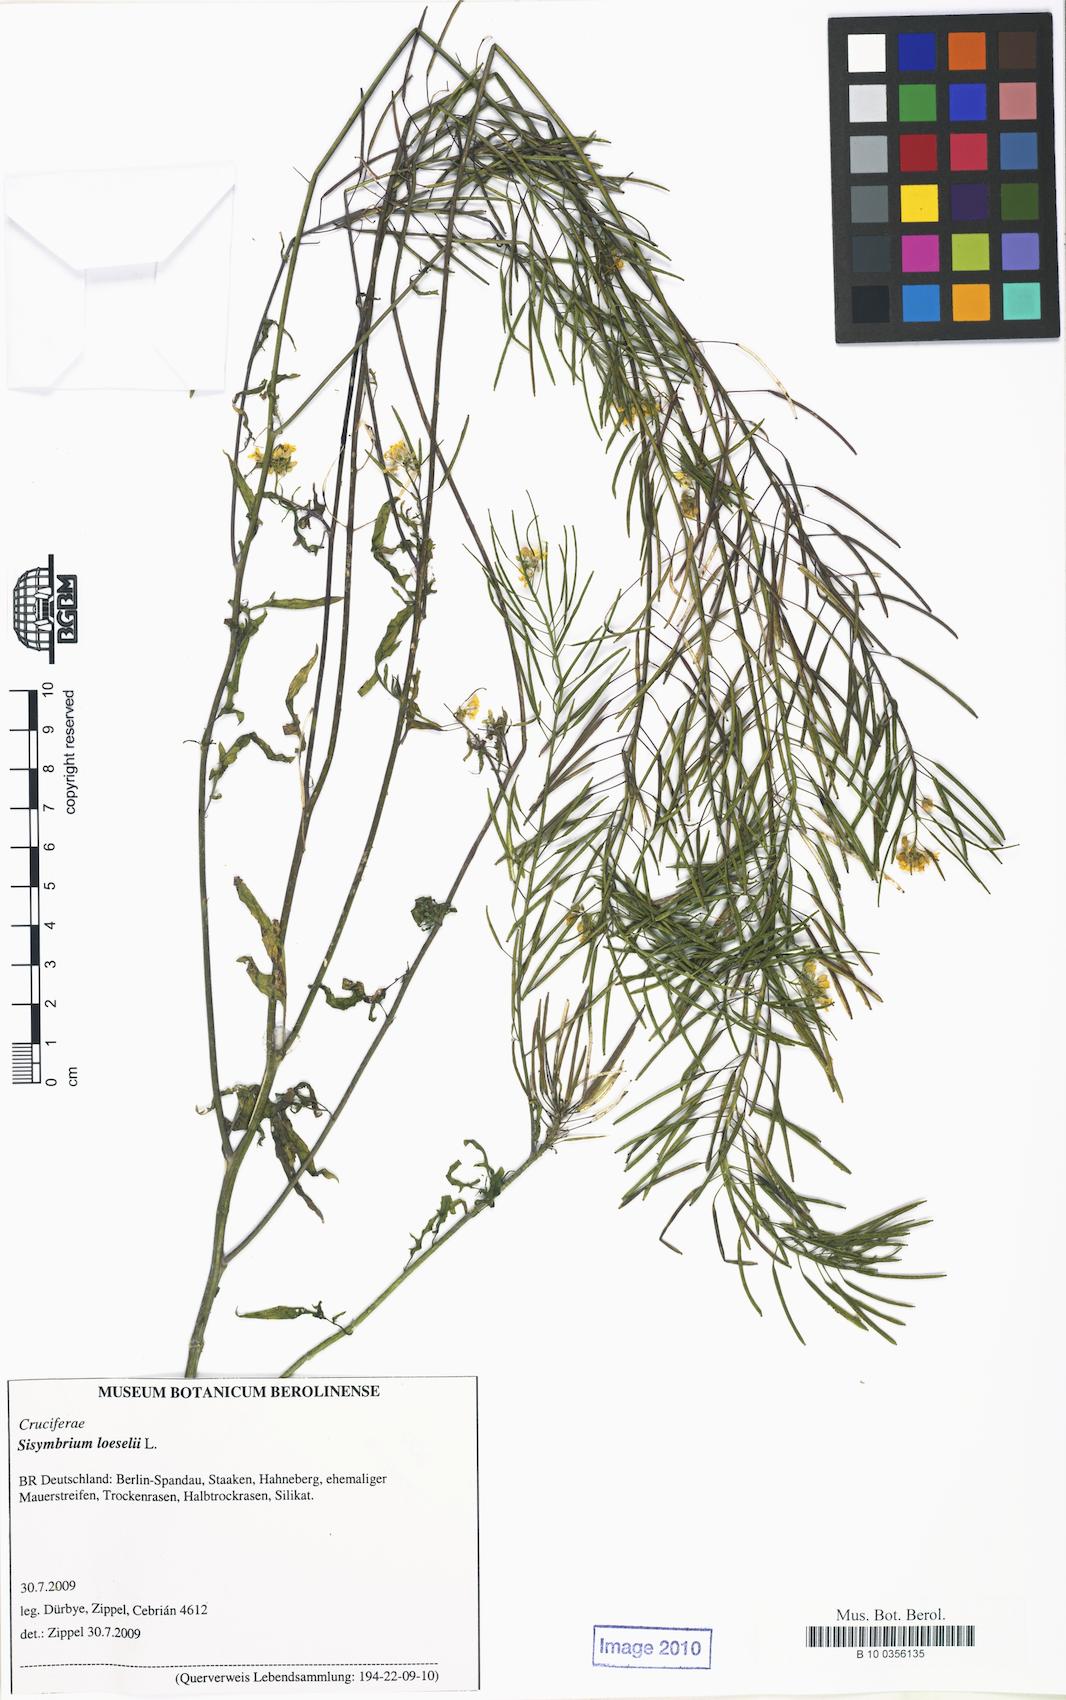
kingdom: Plantae
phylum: Tracheophyta
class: Magnoliopsida
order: Brassicales
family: Brassicaceae
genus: Sisymbrium
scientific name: Sisymbrium loeselii
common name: False london-rocket
